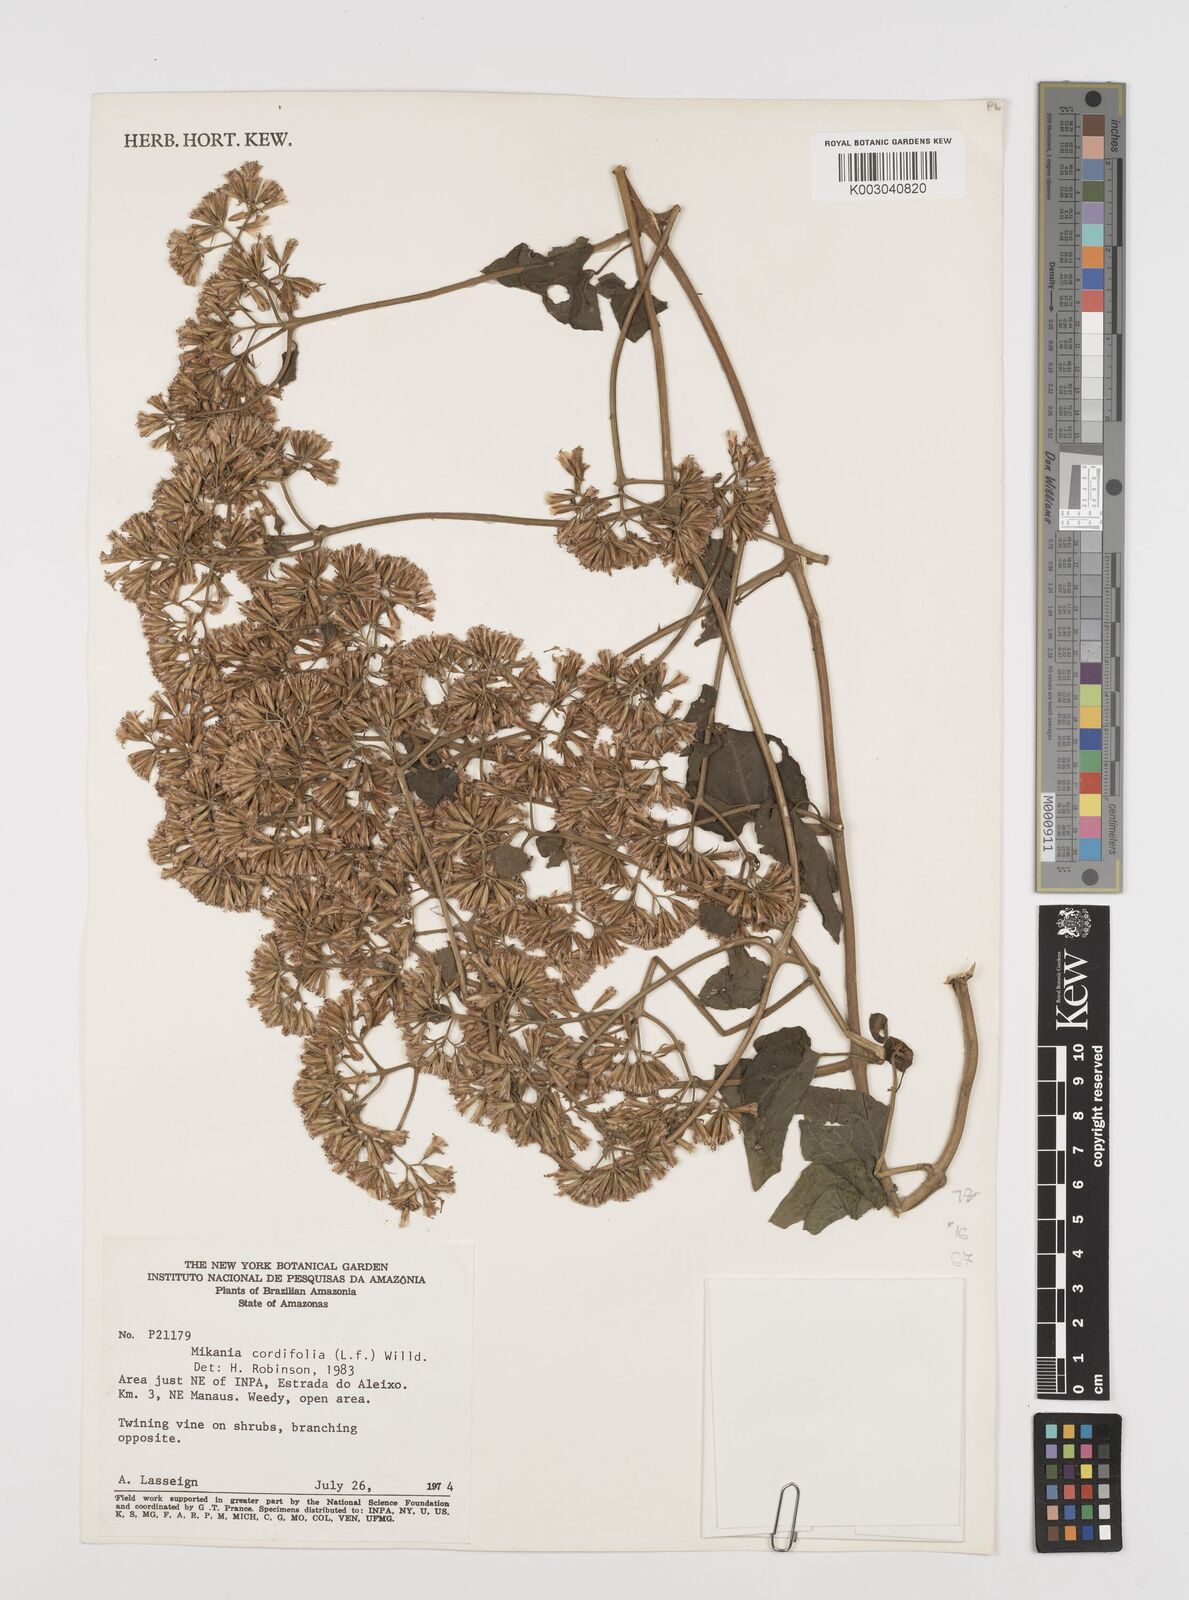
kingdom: Plantae
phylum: Tracheophyta
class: Magnoliopsida
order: Asterales
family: Asteraceae
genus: Mikania
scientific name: Mikania cordifolia
